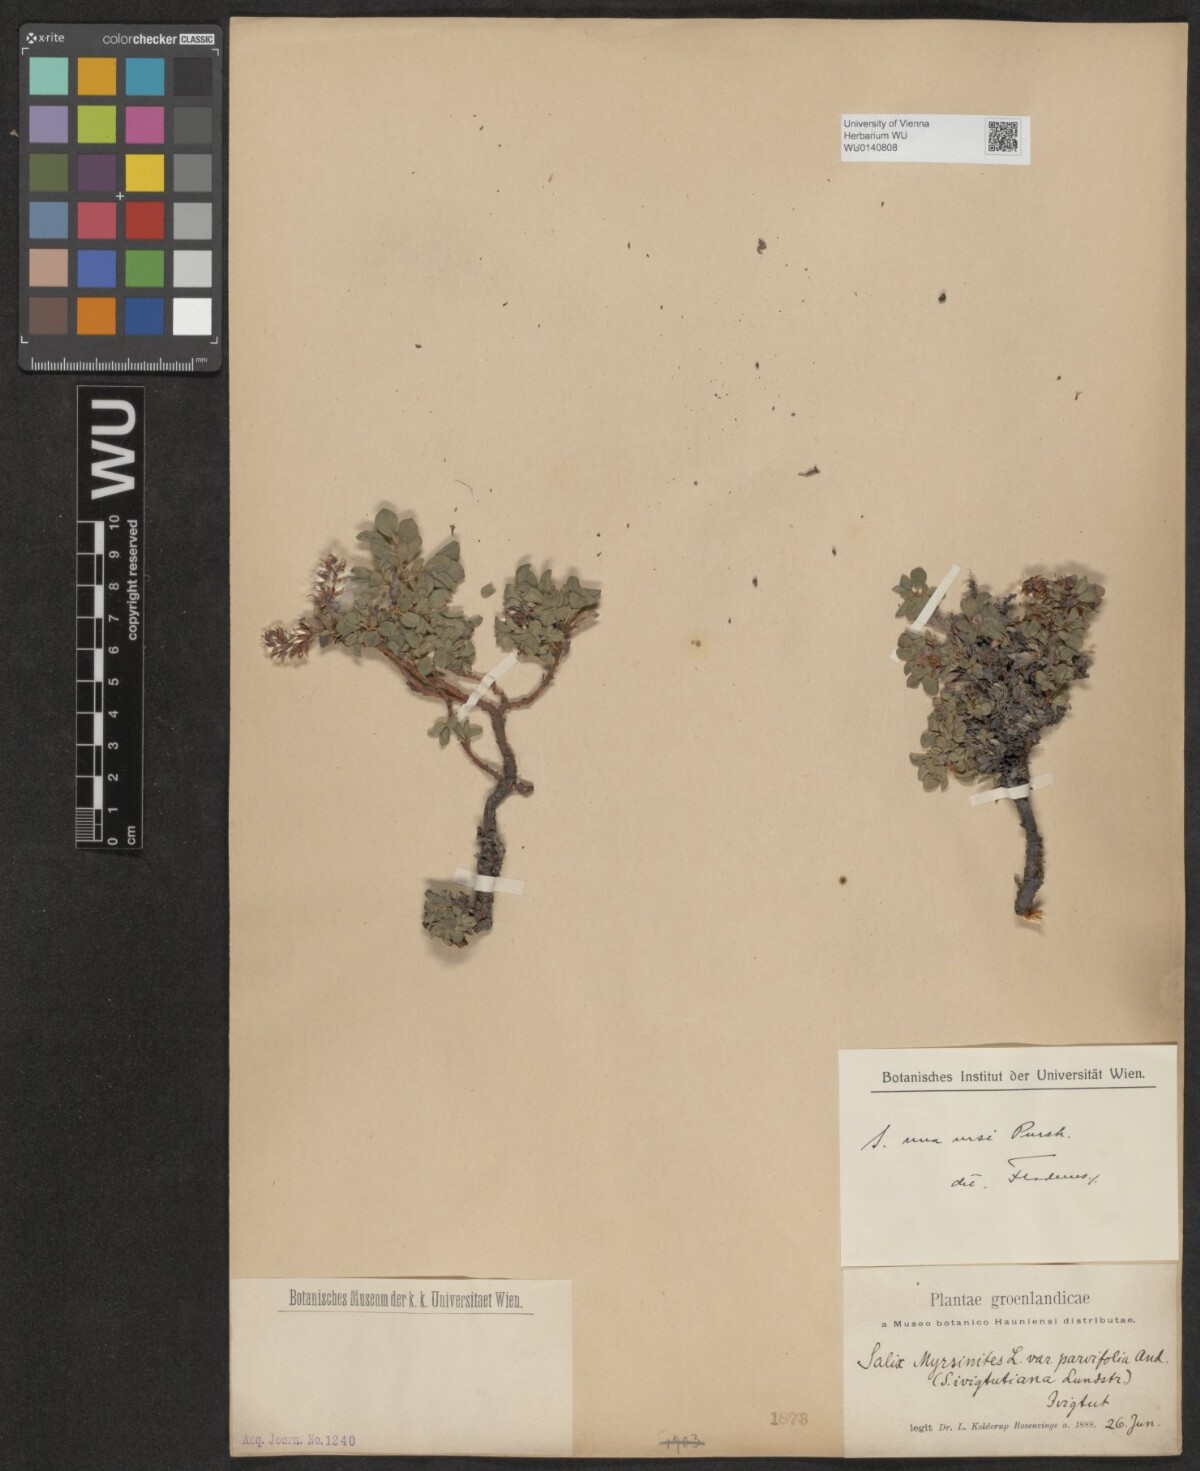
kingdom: Plantae
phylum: Tracheophyta
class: Magnoliopsida
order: Malpighiales
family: Salicaceae
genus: Salix
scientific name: Salix uva-ursi
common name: Bearberry willow
